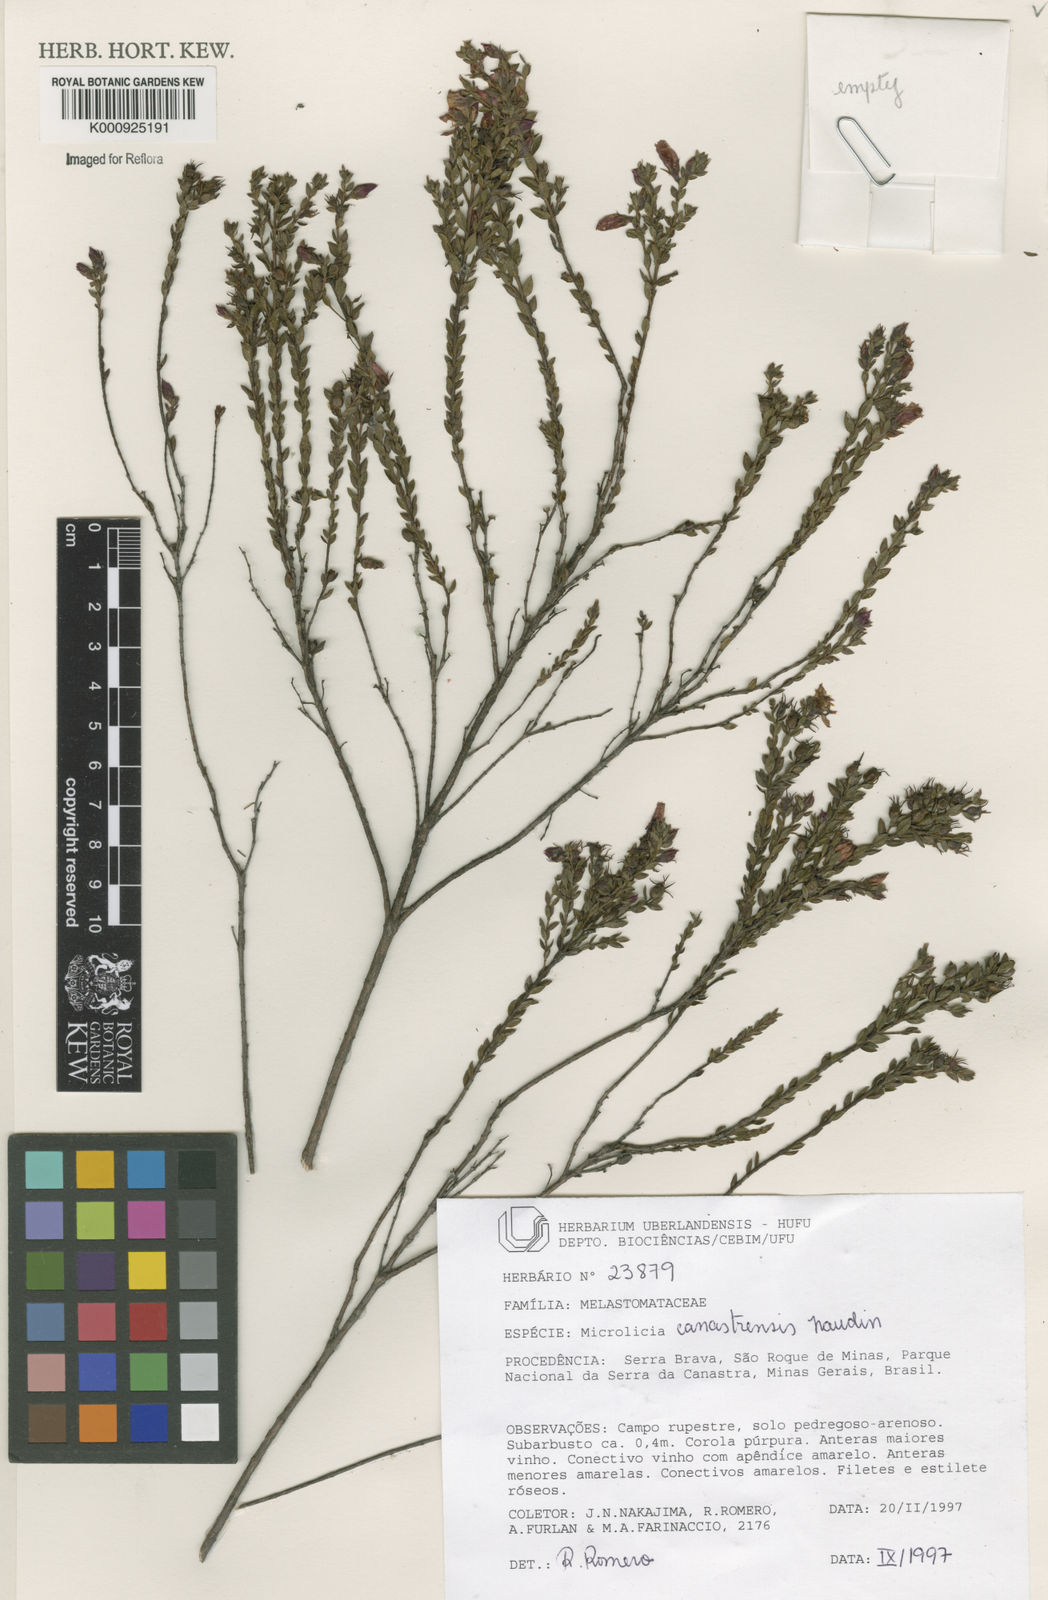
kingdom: Plantae
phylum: Tracheophyta
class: Magnoliopsida
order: Myrtales
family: Melastomataceae
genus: Microlicia
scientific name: Microlicia canastrensis
